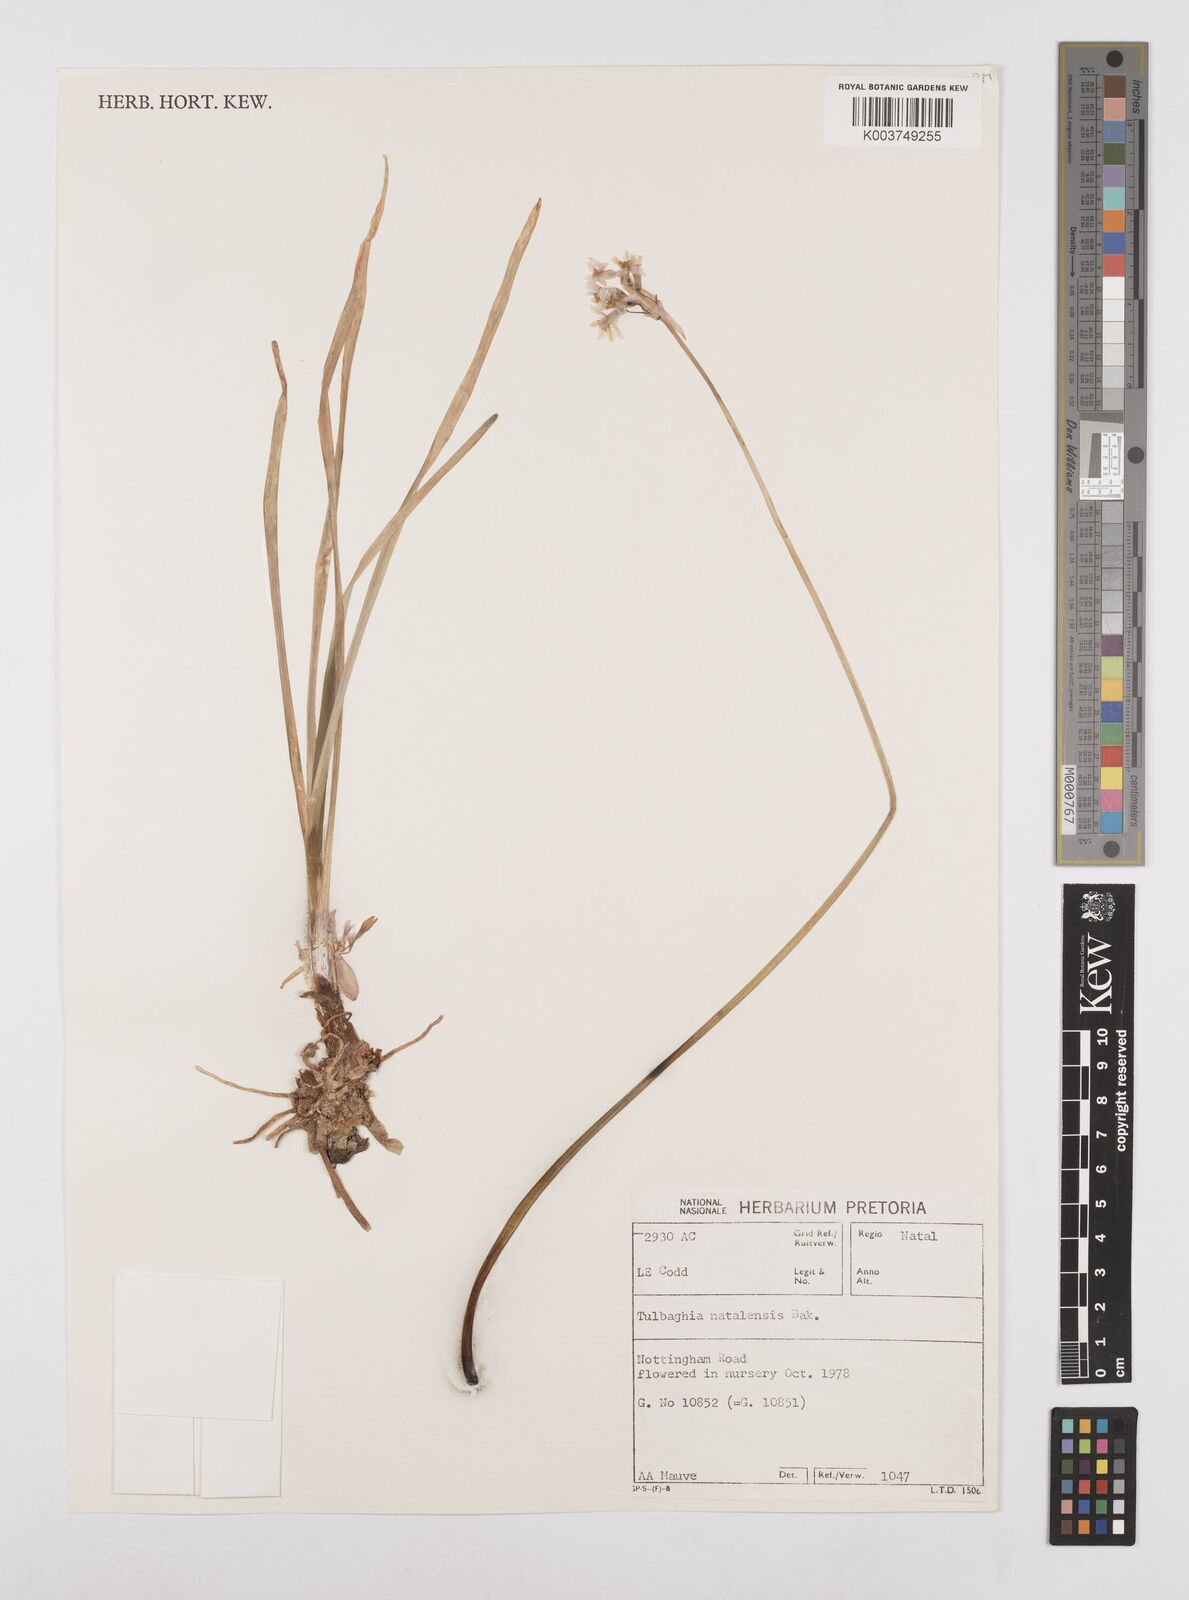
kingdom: Plantae
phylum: Tracheophyta
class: Liliopsida
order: Asparagales
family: Amaryllidaceae
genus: Tulbaghia
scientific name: Tulbaghia natalensis
